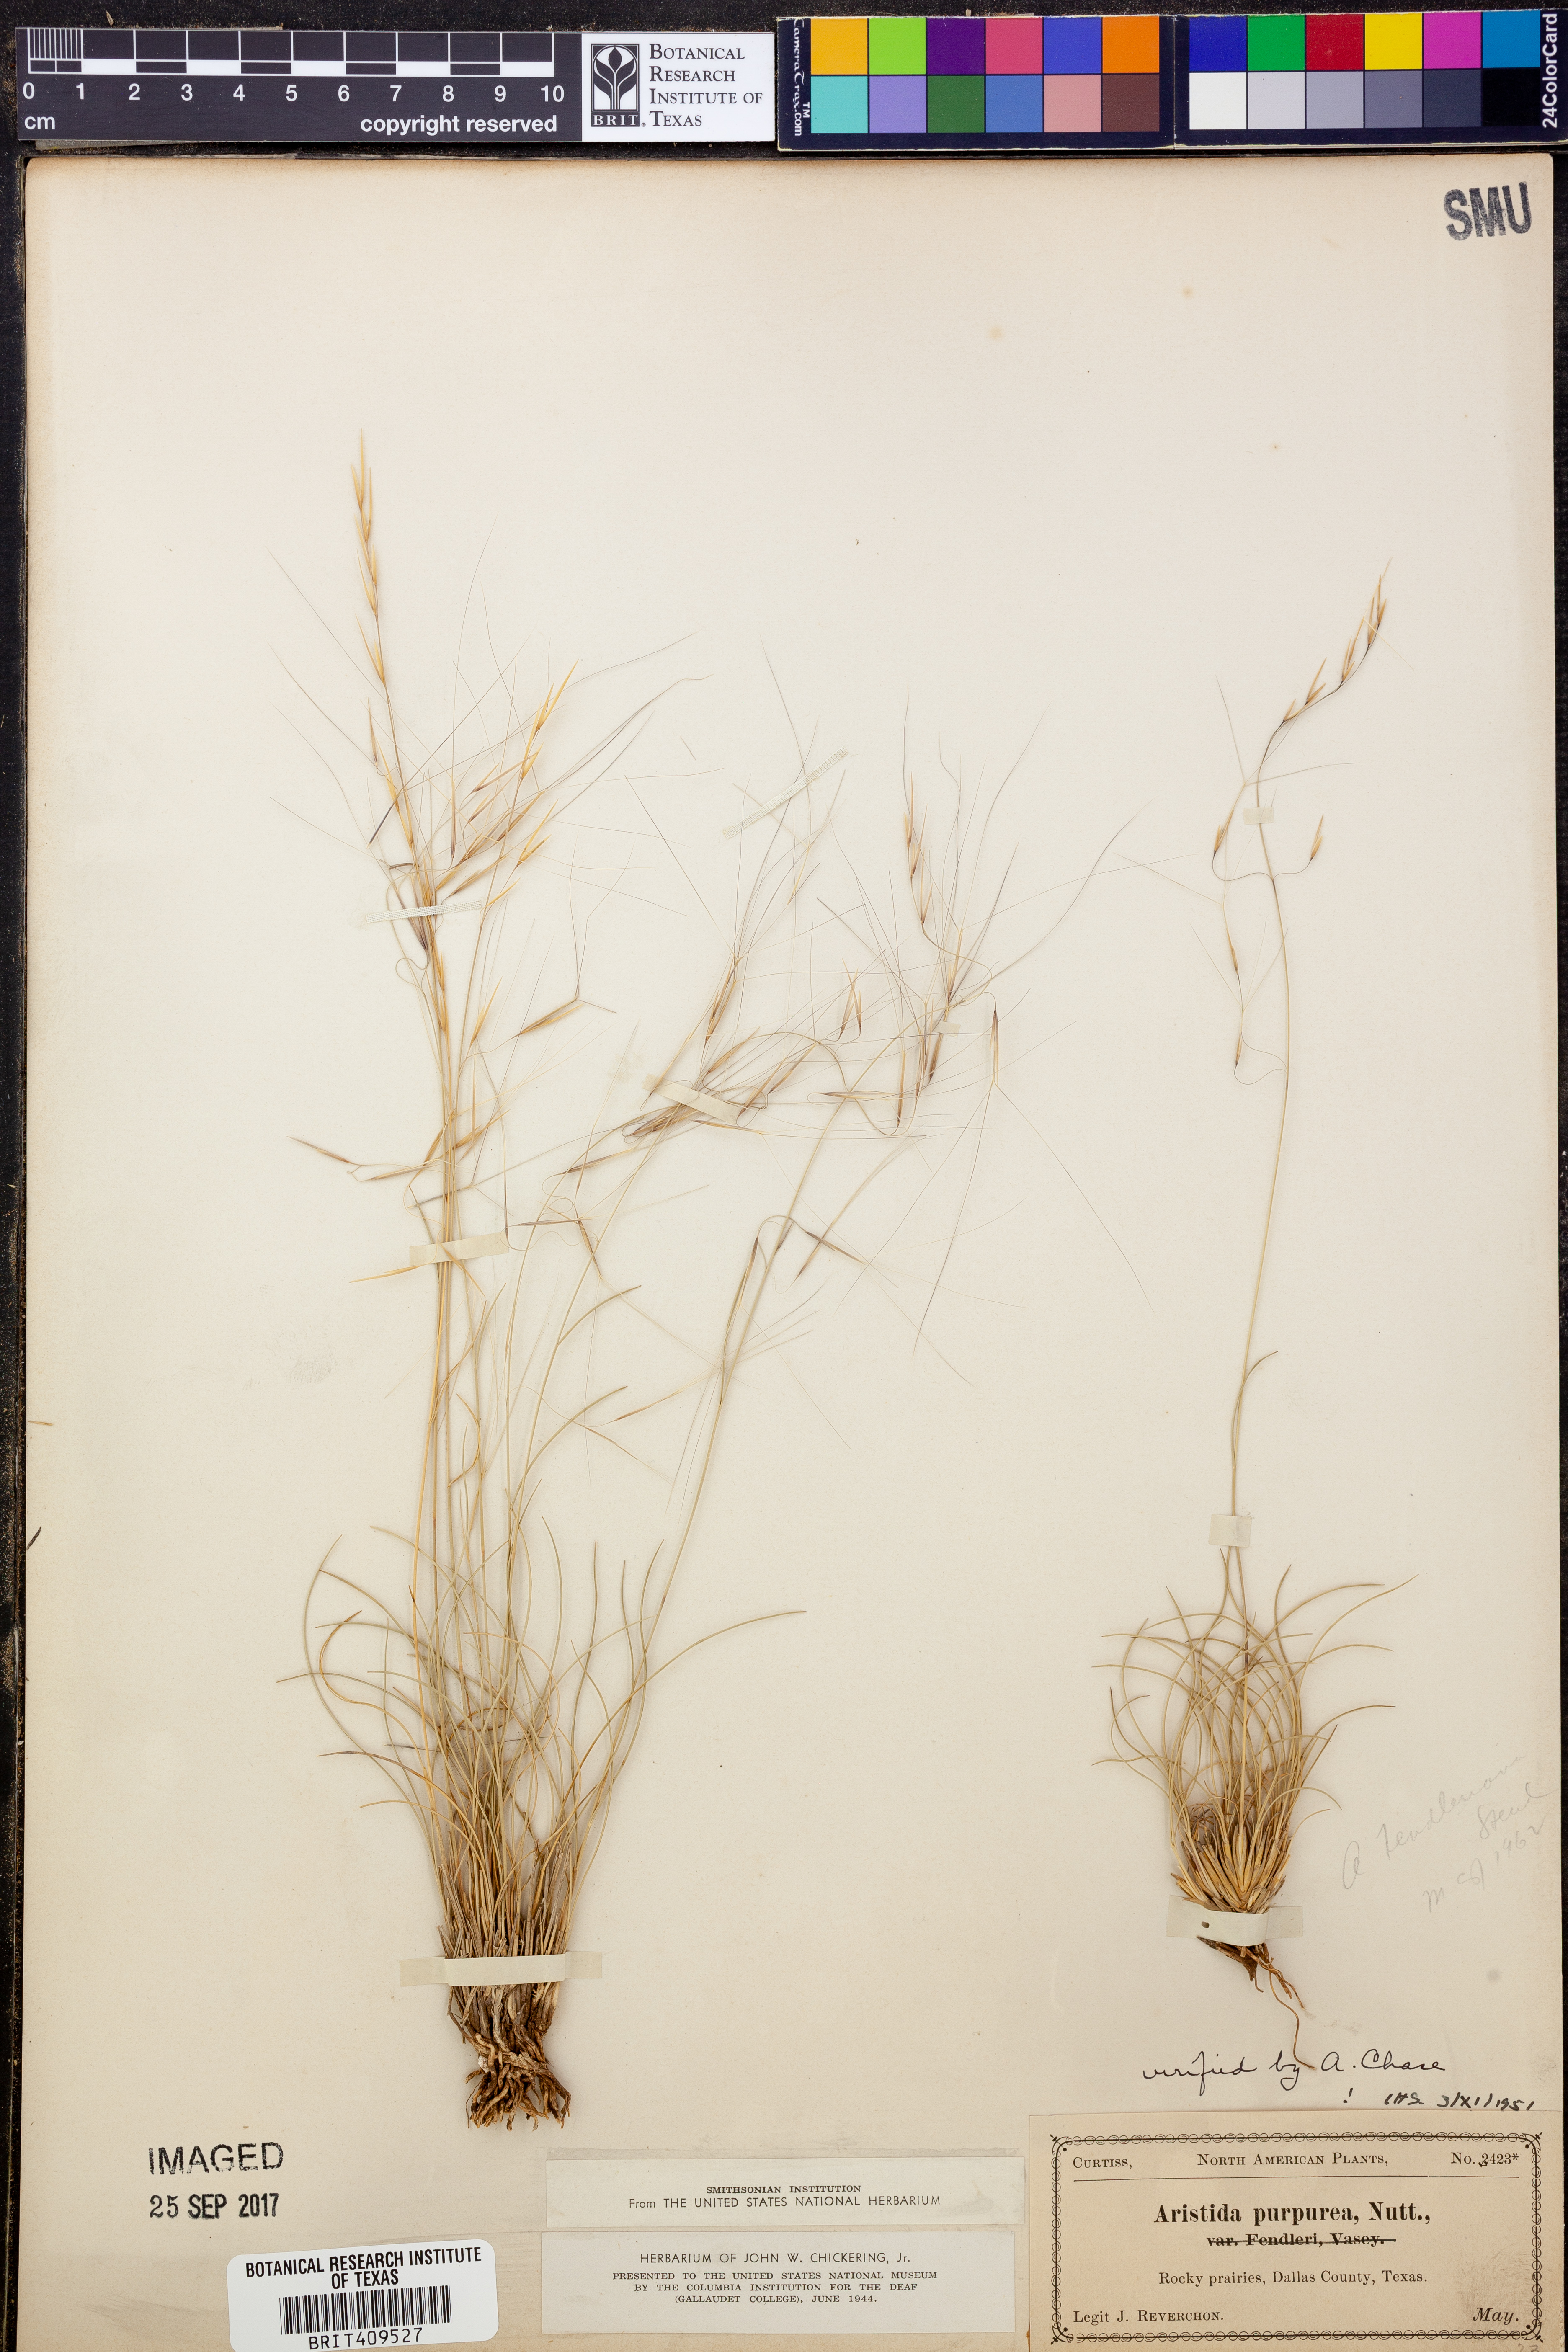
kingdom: Plantae
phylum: Tracheophyta
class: Liliopsida
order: Poales
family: Poaceae
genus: Aristida
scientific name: Aristida purpurea
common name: Purple threeawn
